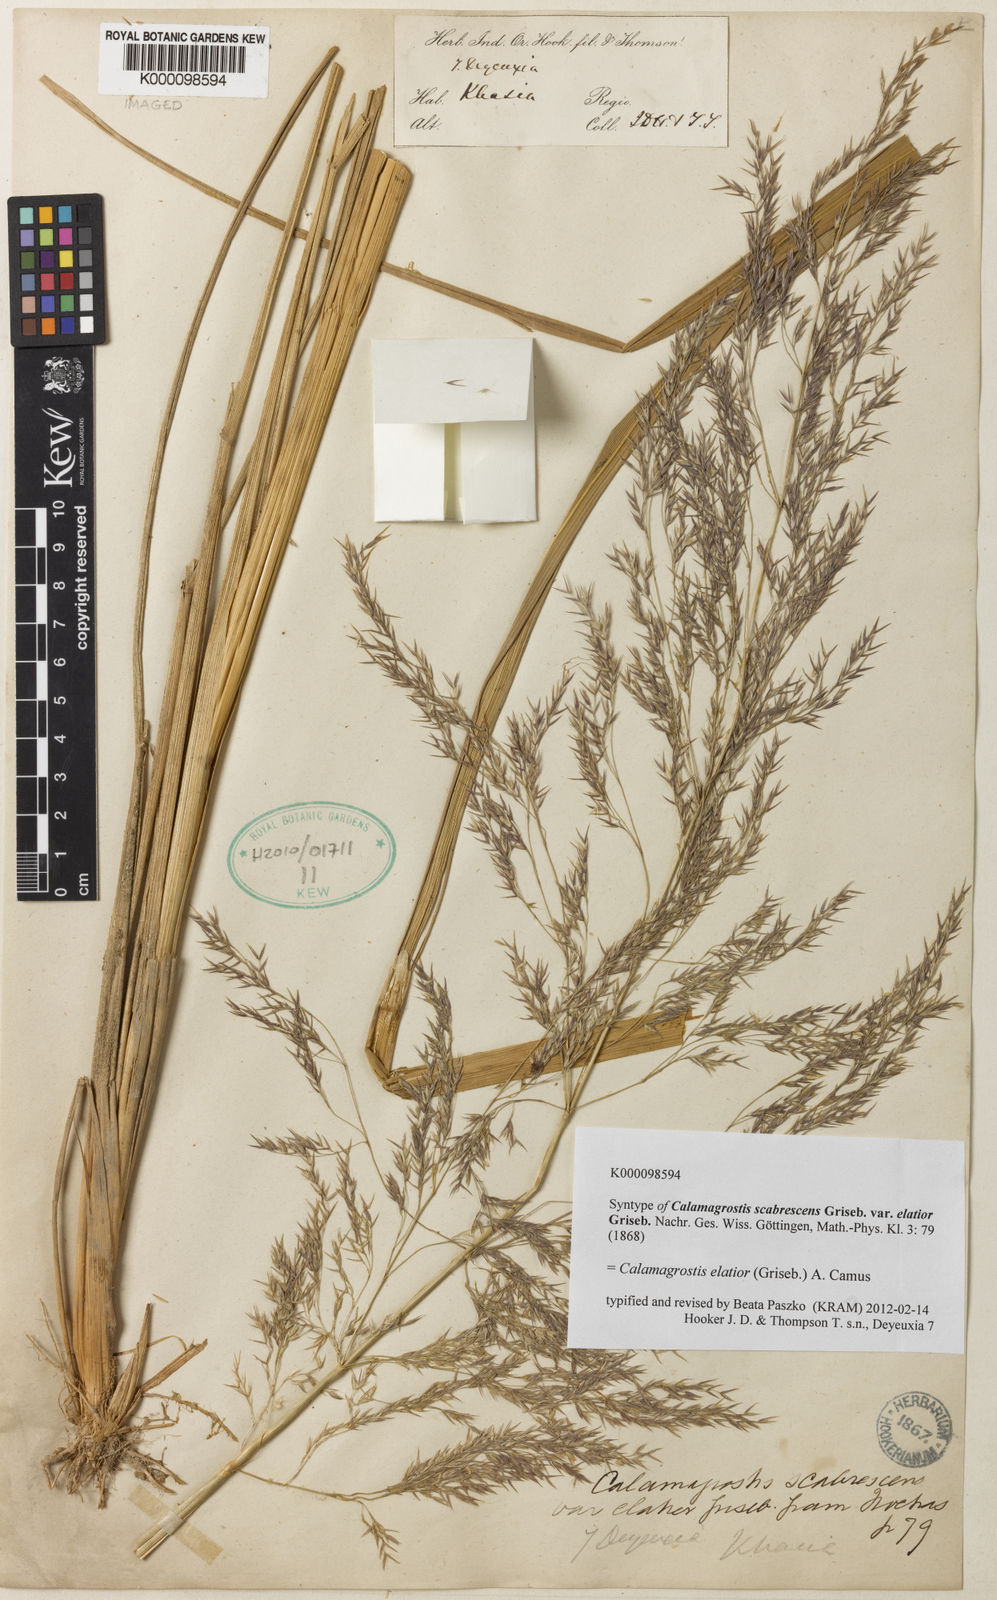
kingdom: Plantae
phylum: Tracheophyta
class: Liliopsida
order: Poales
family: Poaceae
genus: Calamagrostis
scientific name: Calamagrostis elatior
